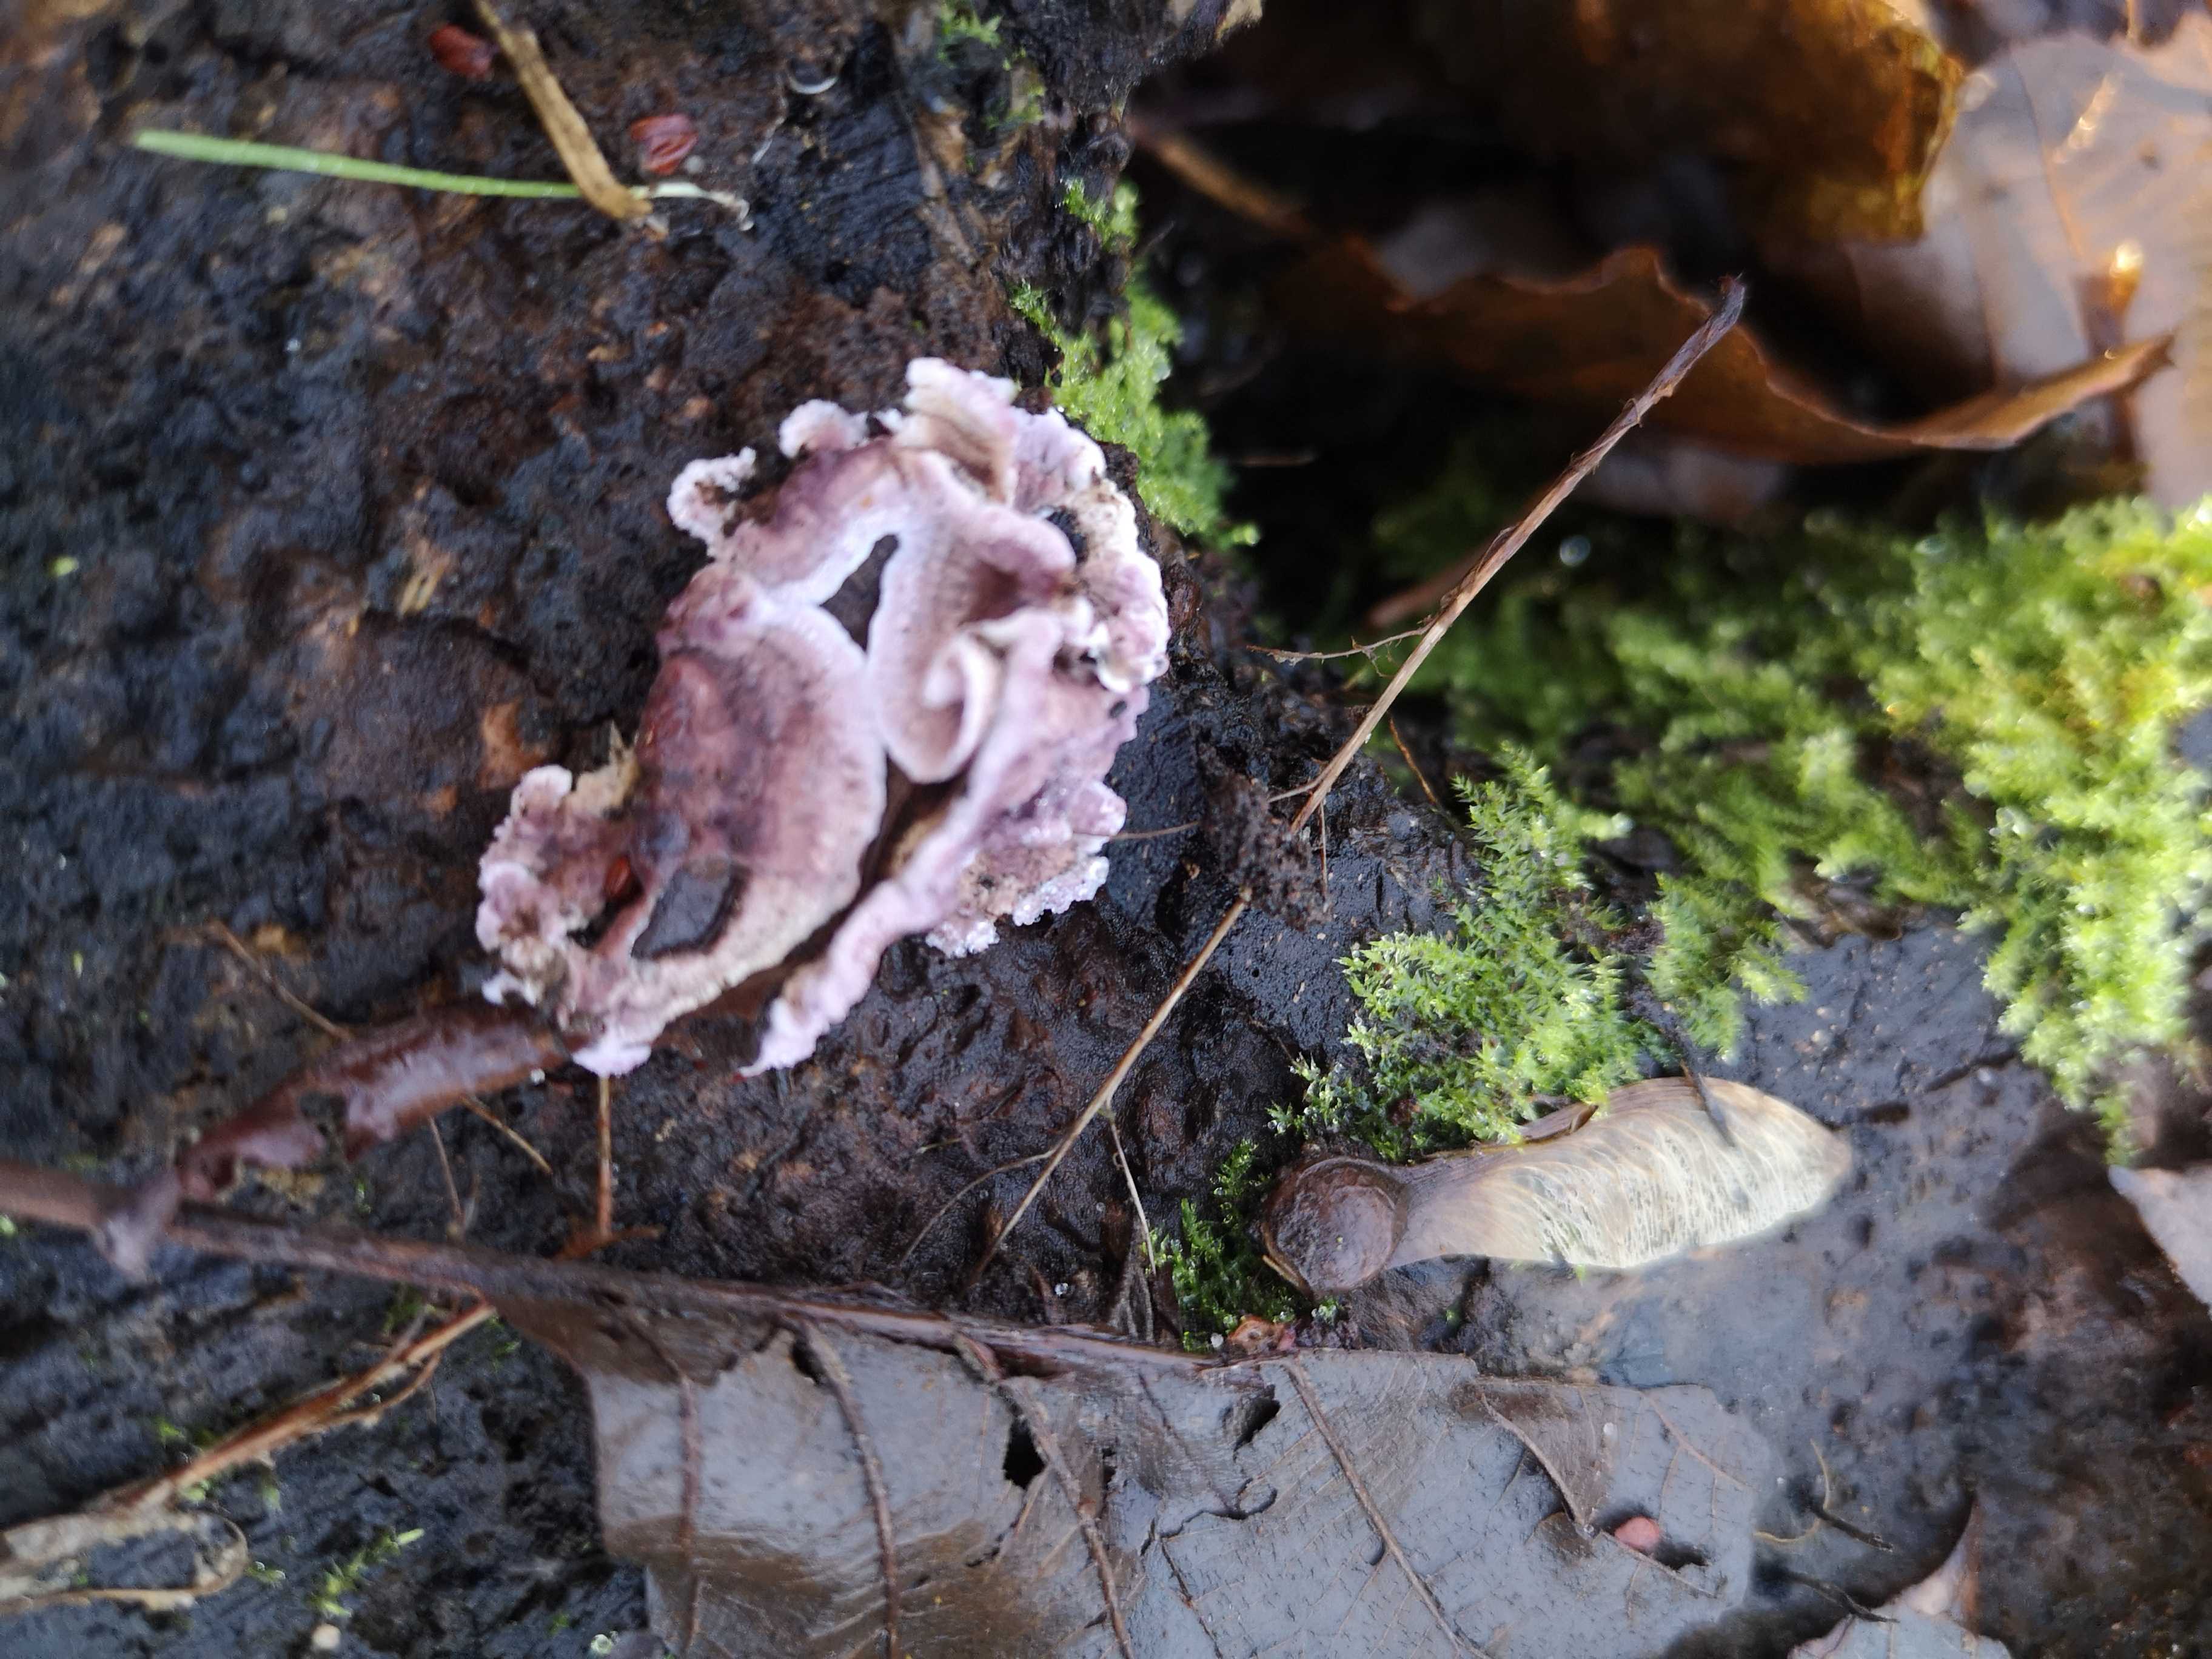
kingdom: Fungi
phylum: Basidiomycota
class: Agaricomycetes
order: Agaricales
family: Cyphellaceae
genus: Chondrostereum
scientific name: Chondrostereum purpureum
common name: purpurlædersvamp
